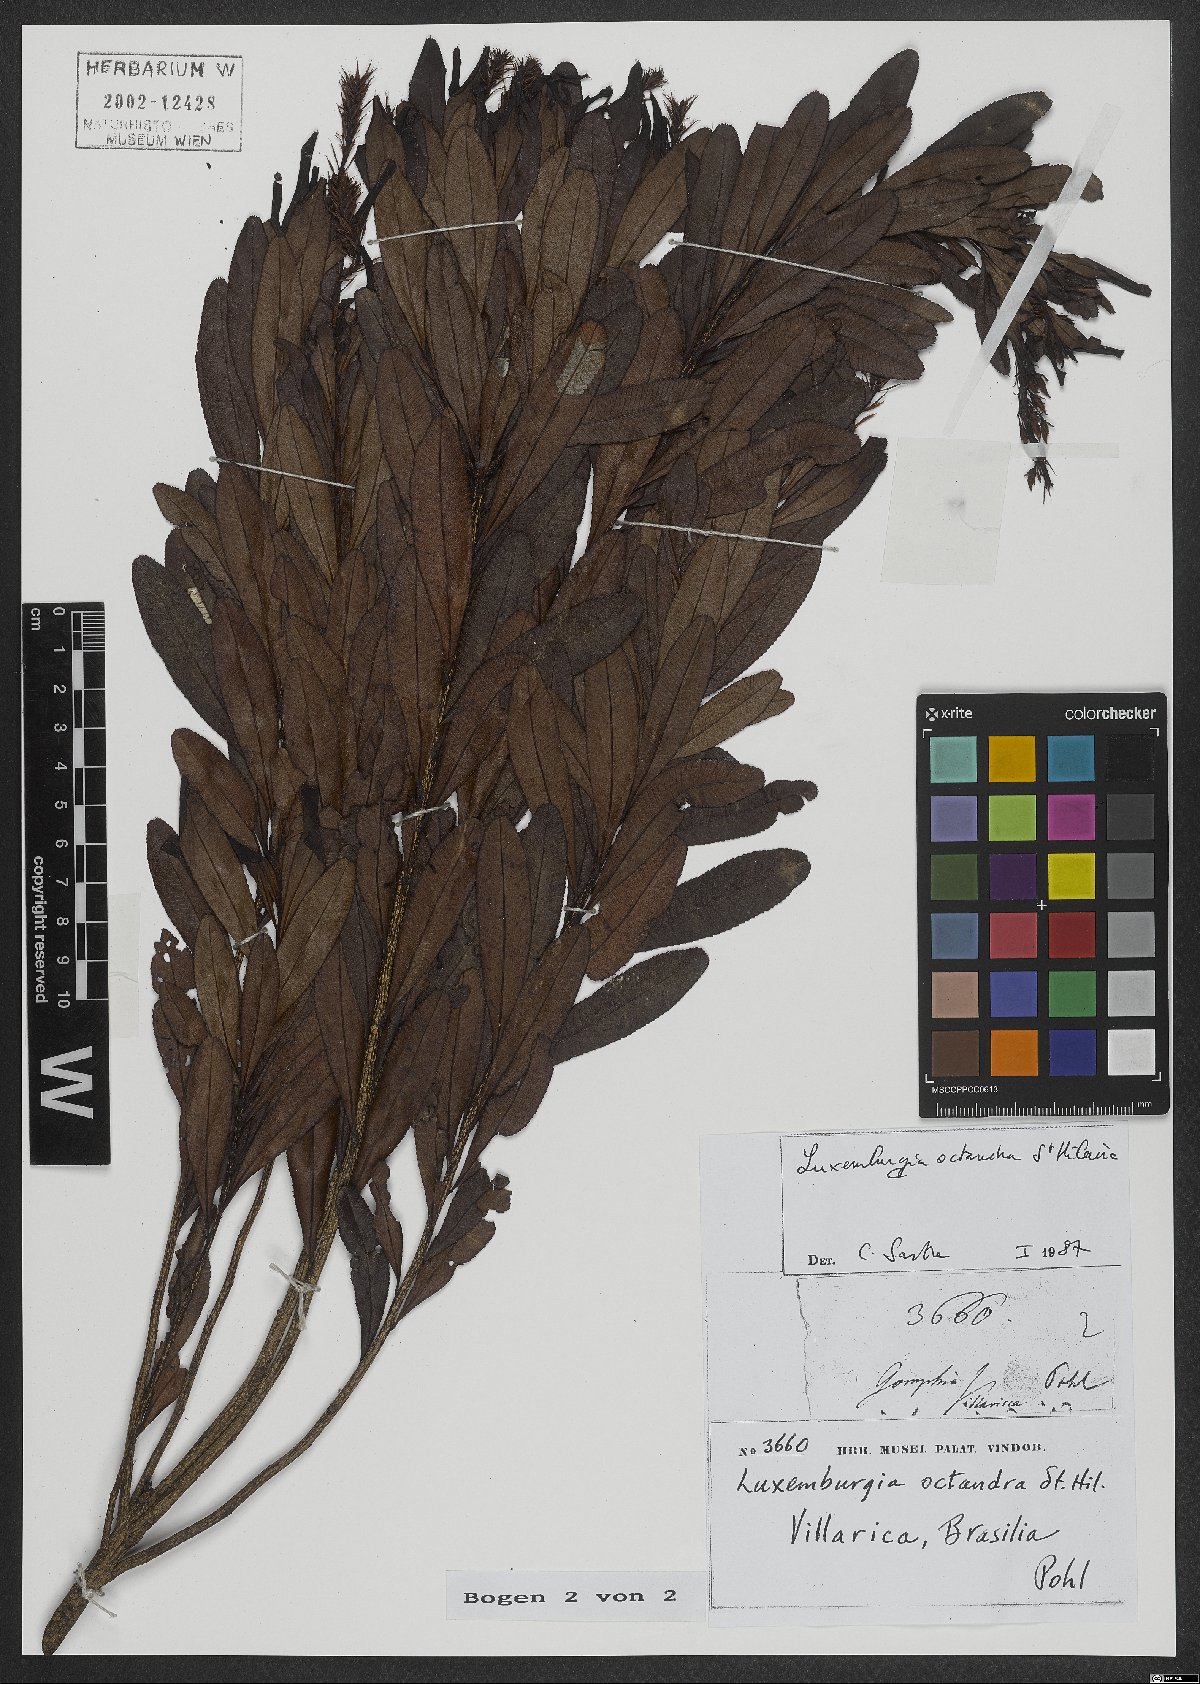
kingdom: Plantae
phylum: Tracheophyta
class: Magnoliopsida
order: Malpighiales
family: Ochnaceae
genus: Luxemburgia
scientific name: Luxemburgia octandra
